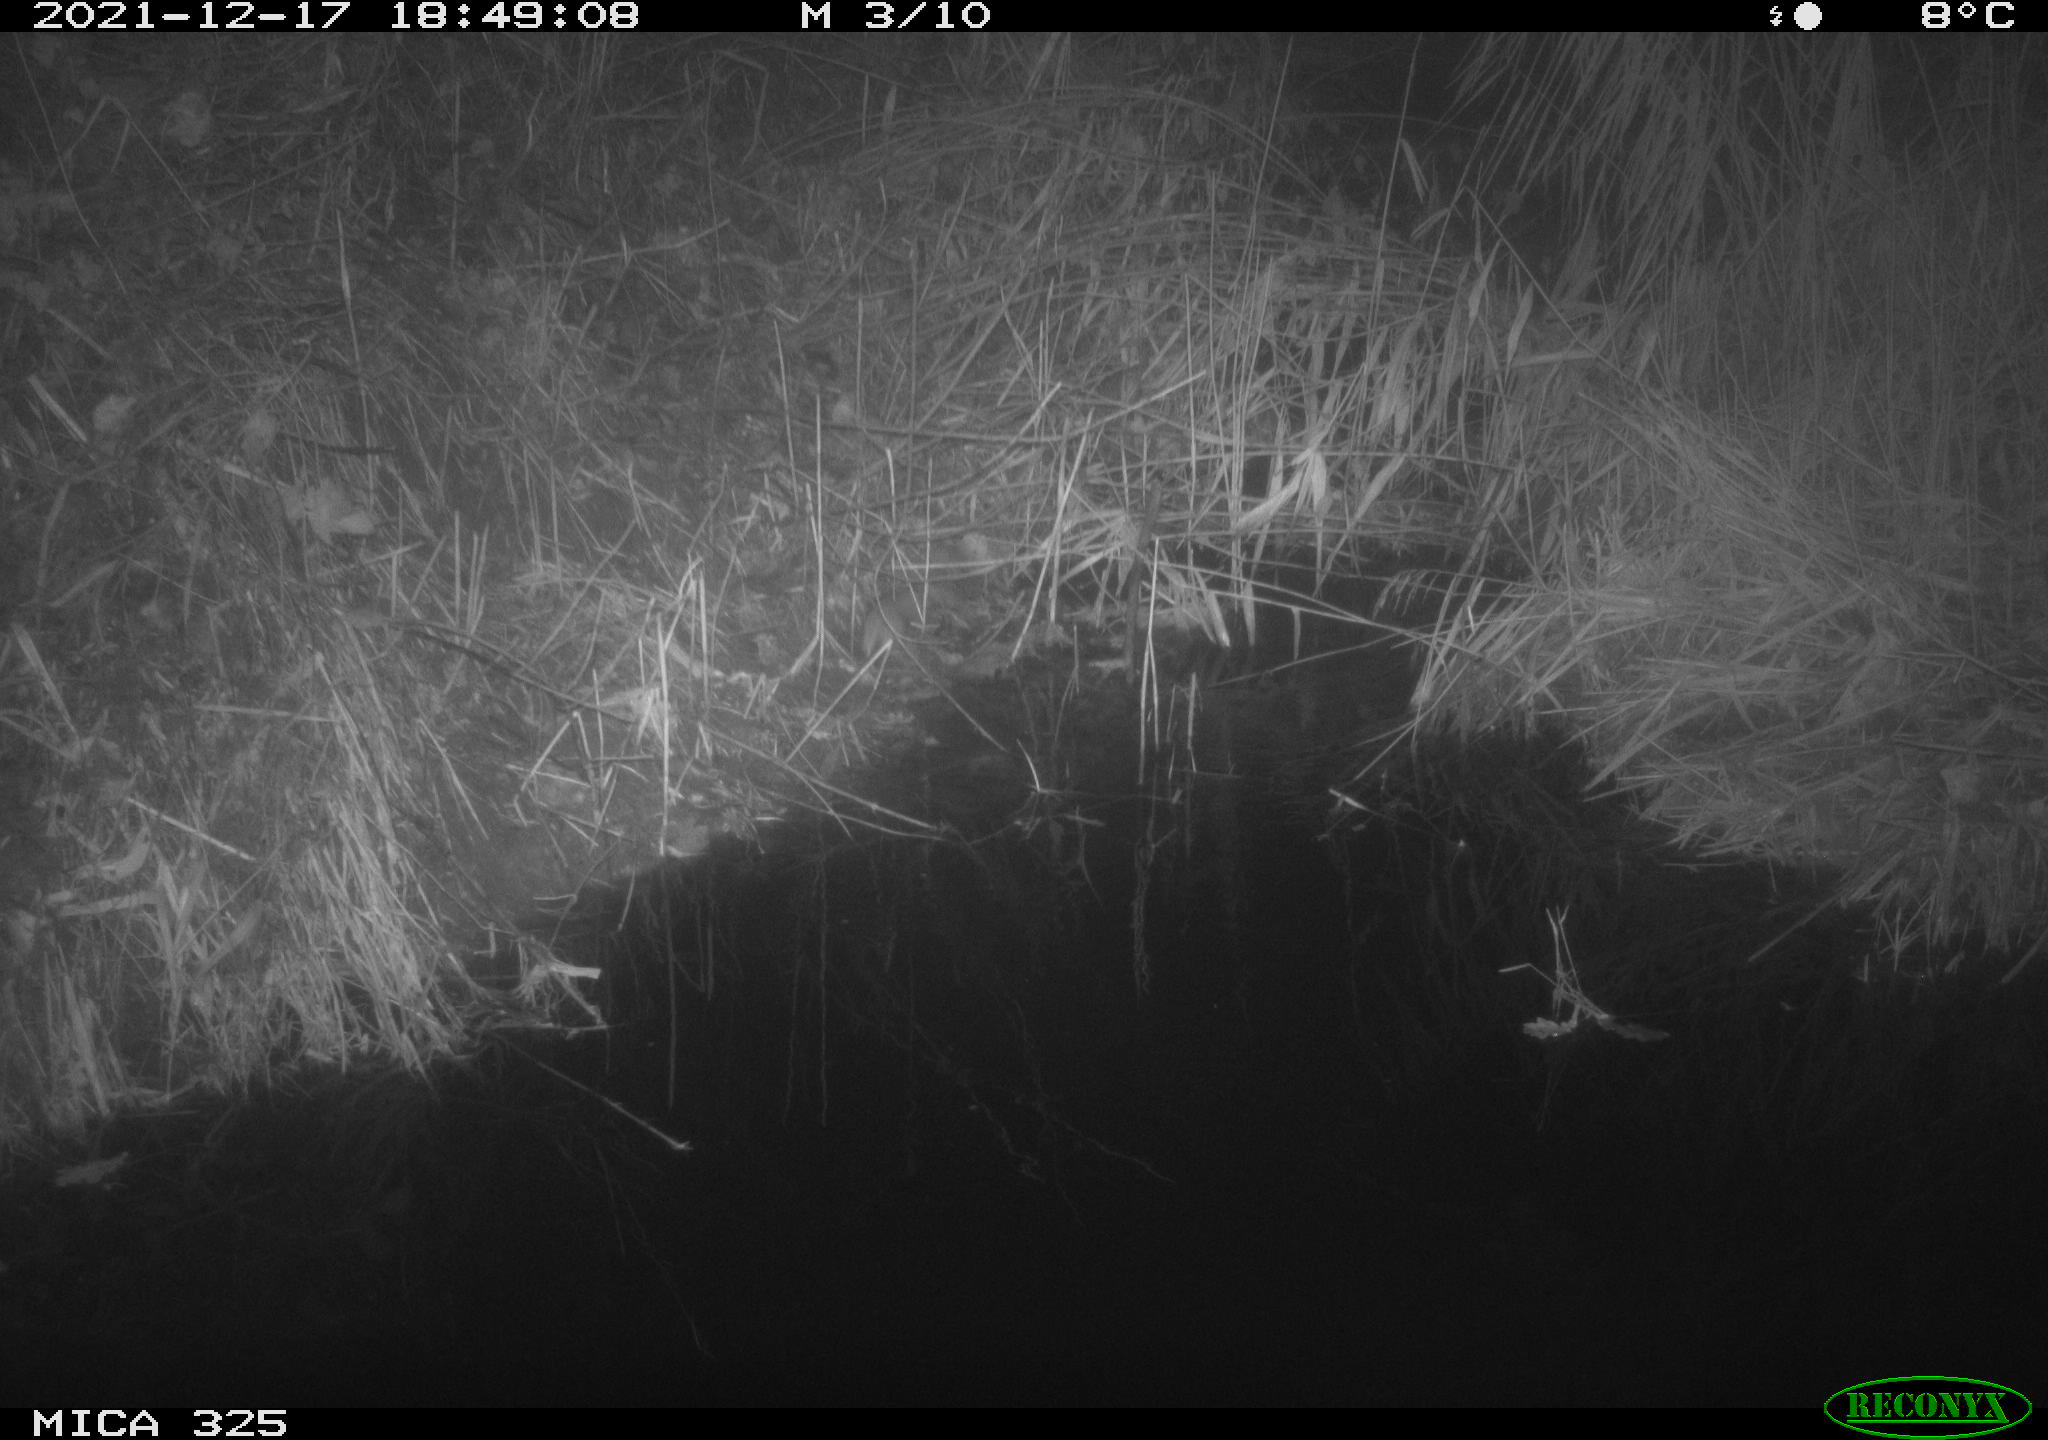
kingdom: Animalia
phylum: Chordata
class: Mammalia
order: Rodentia
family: Muridae
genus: Rattus
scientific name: Rattus norvegicus
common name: Brown rat
